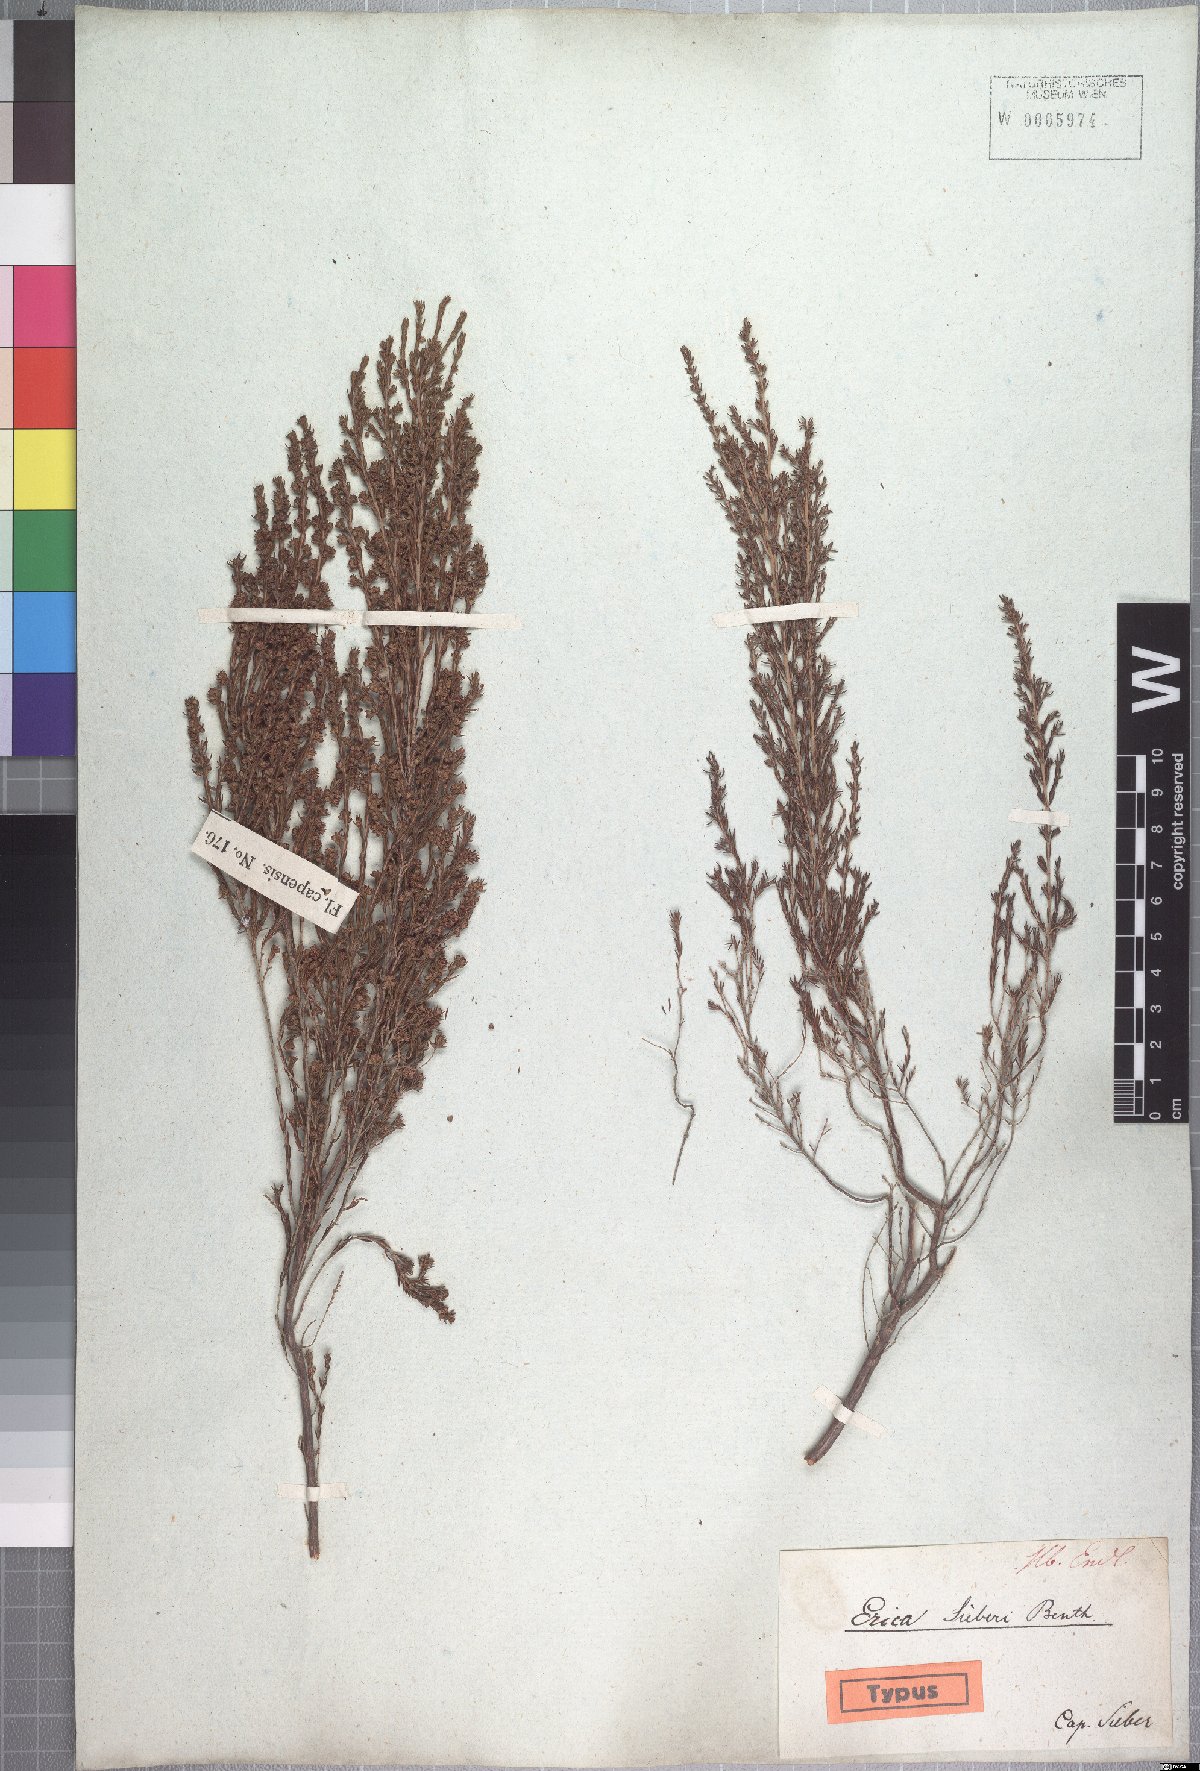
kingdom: Plantae
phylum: Tracheophyta
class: Magnoliopsida
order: Ericales
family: Ericaceae
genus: Erica
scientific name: Erica axillaris
